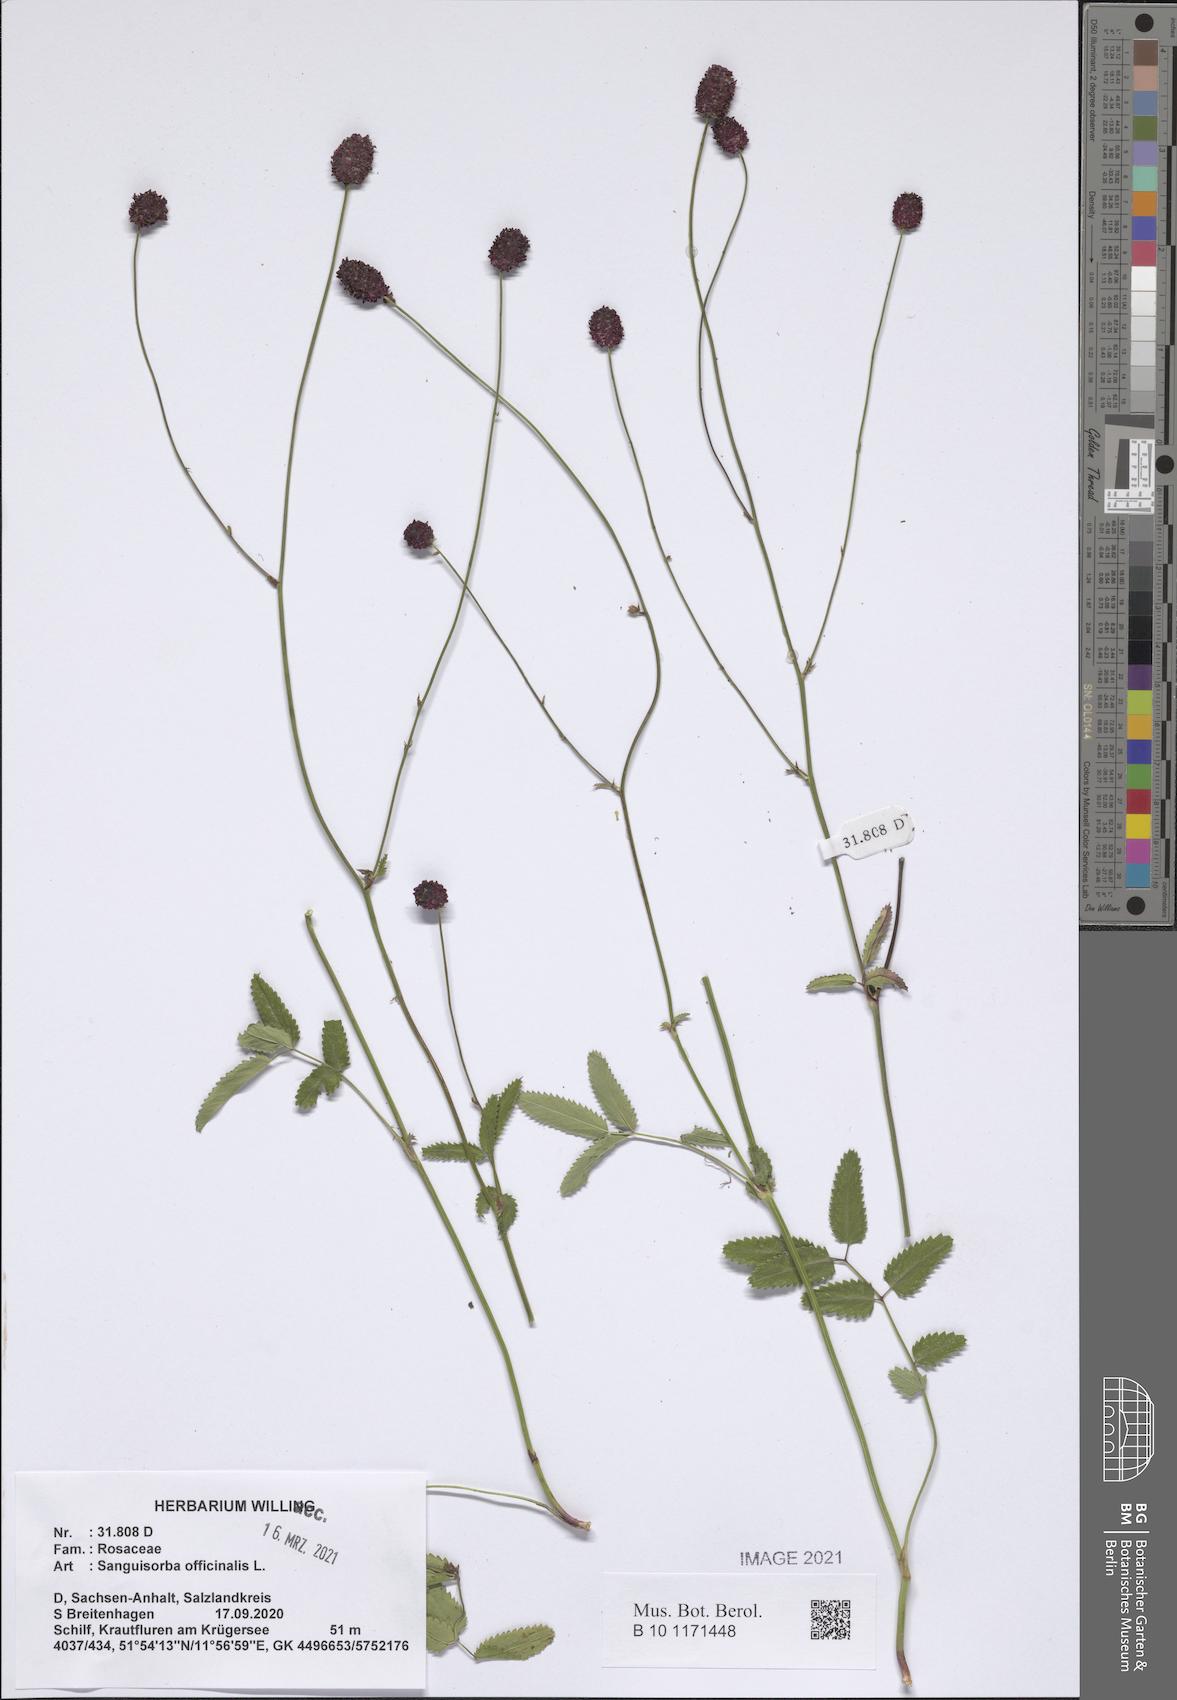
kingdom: Plantae
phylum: Tracheophyta
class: Magnoliopsida
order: Rosales
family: Rosaceae
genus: Sanguisorba
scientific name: Sanguisorba officinalis
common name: Great burnet
